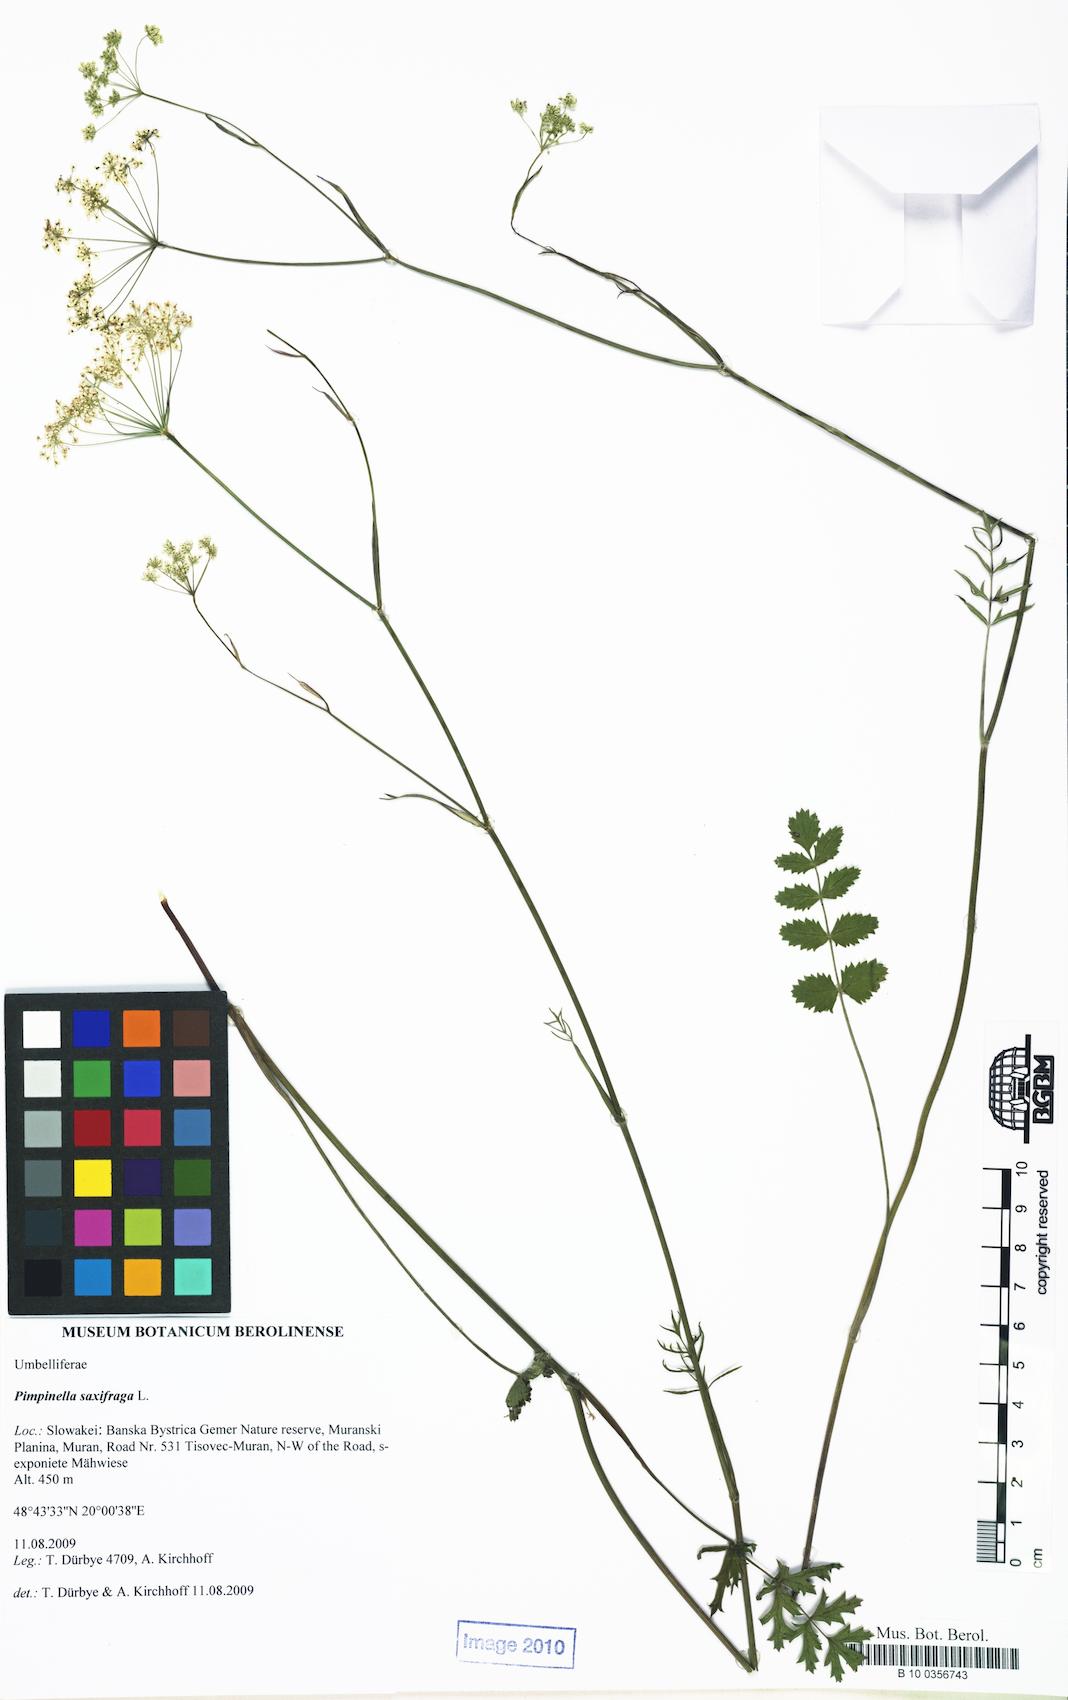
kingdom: Plantae
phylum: Tracheophyta
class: Magnoliopsida
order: Apiales
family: Apiaceae
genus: Pimpinella
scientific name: Pimpinella saxifraga
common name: Burnet-saxifrage
